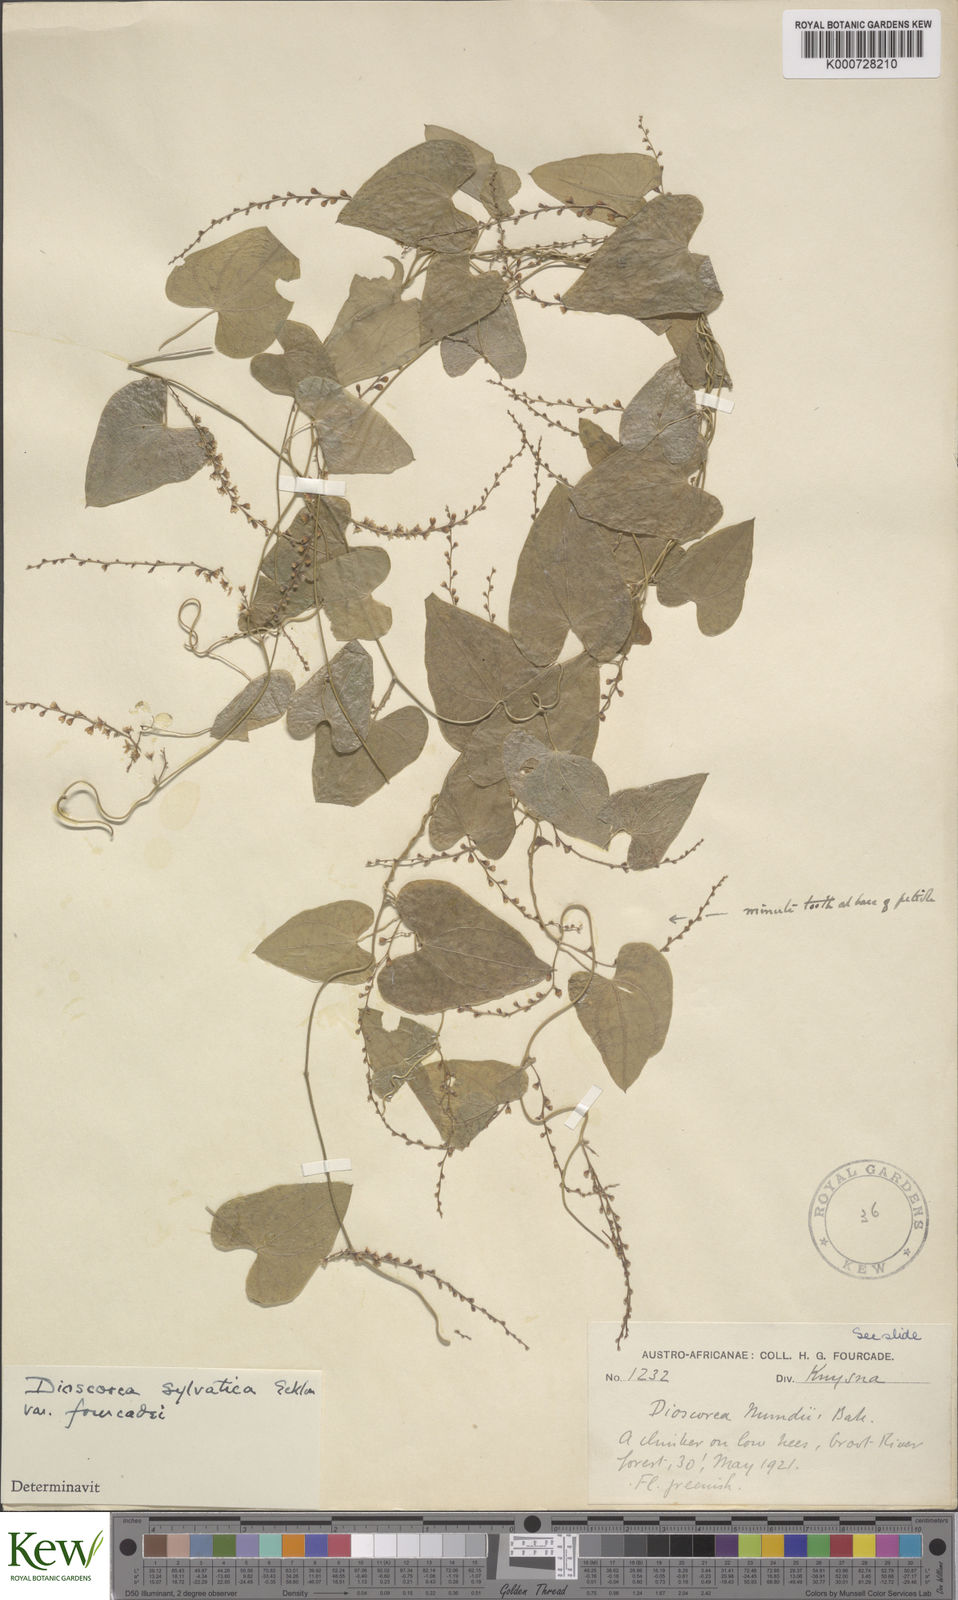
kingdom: Plantae
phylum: Tracheophyta
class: Liliopsida
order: Dioscoreales
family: Dioscoreaceae
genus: Dioscorea
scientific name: Dioscorea sylvatica
